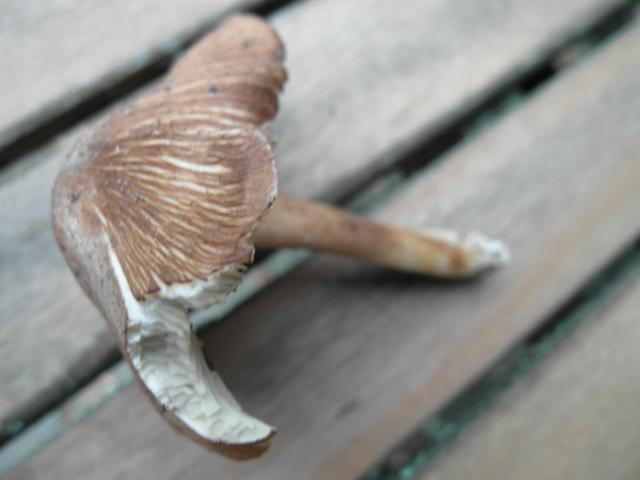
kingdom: Fungi
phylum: Basidiomycota
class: Agaricomycetes
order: Agaricales
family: Inocybaceae
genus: Inosperma
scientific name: Inosperma
